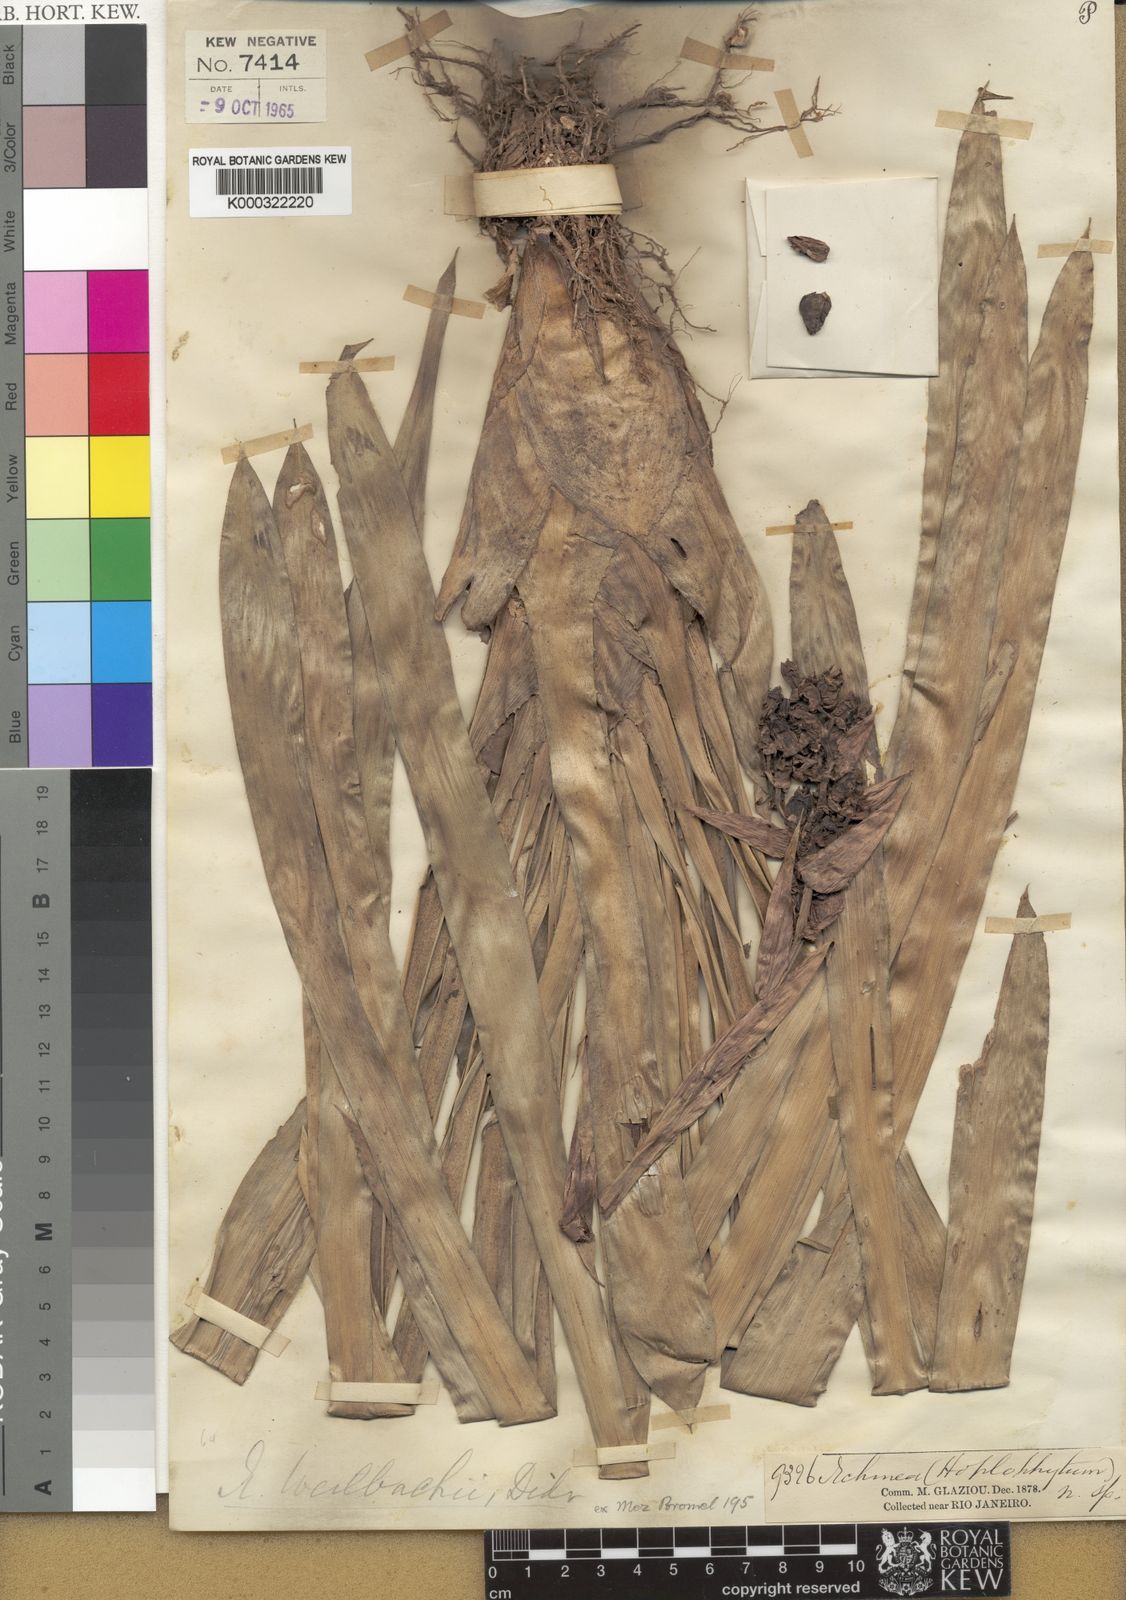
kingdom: Plantae
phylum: Tracheophyta
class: Liliopsida
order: Poales
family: Bromeliaceae
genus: Aechmea
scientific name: Aechmea weilbachii
